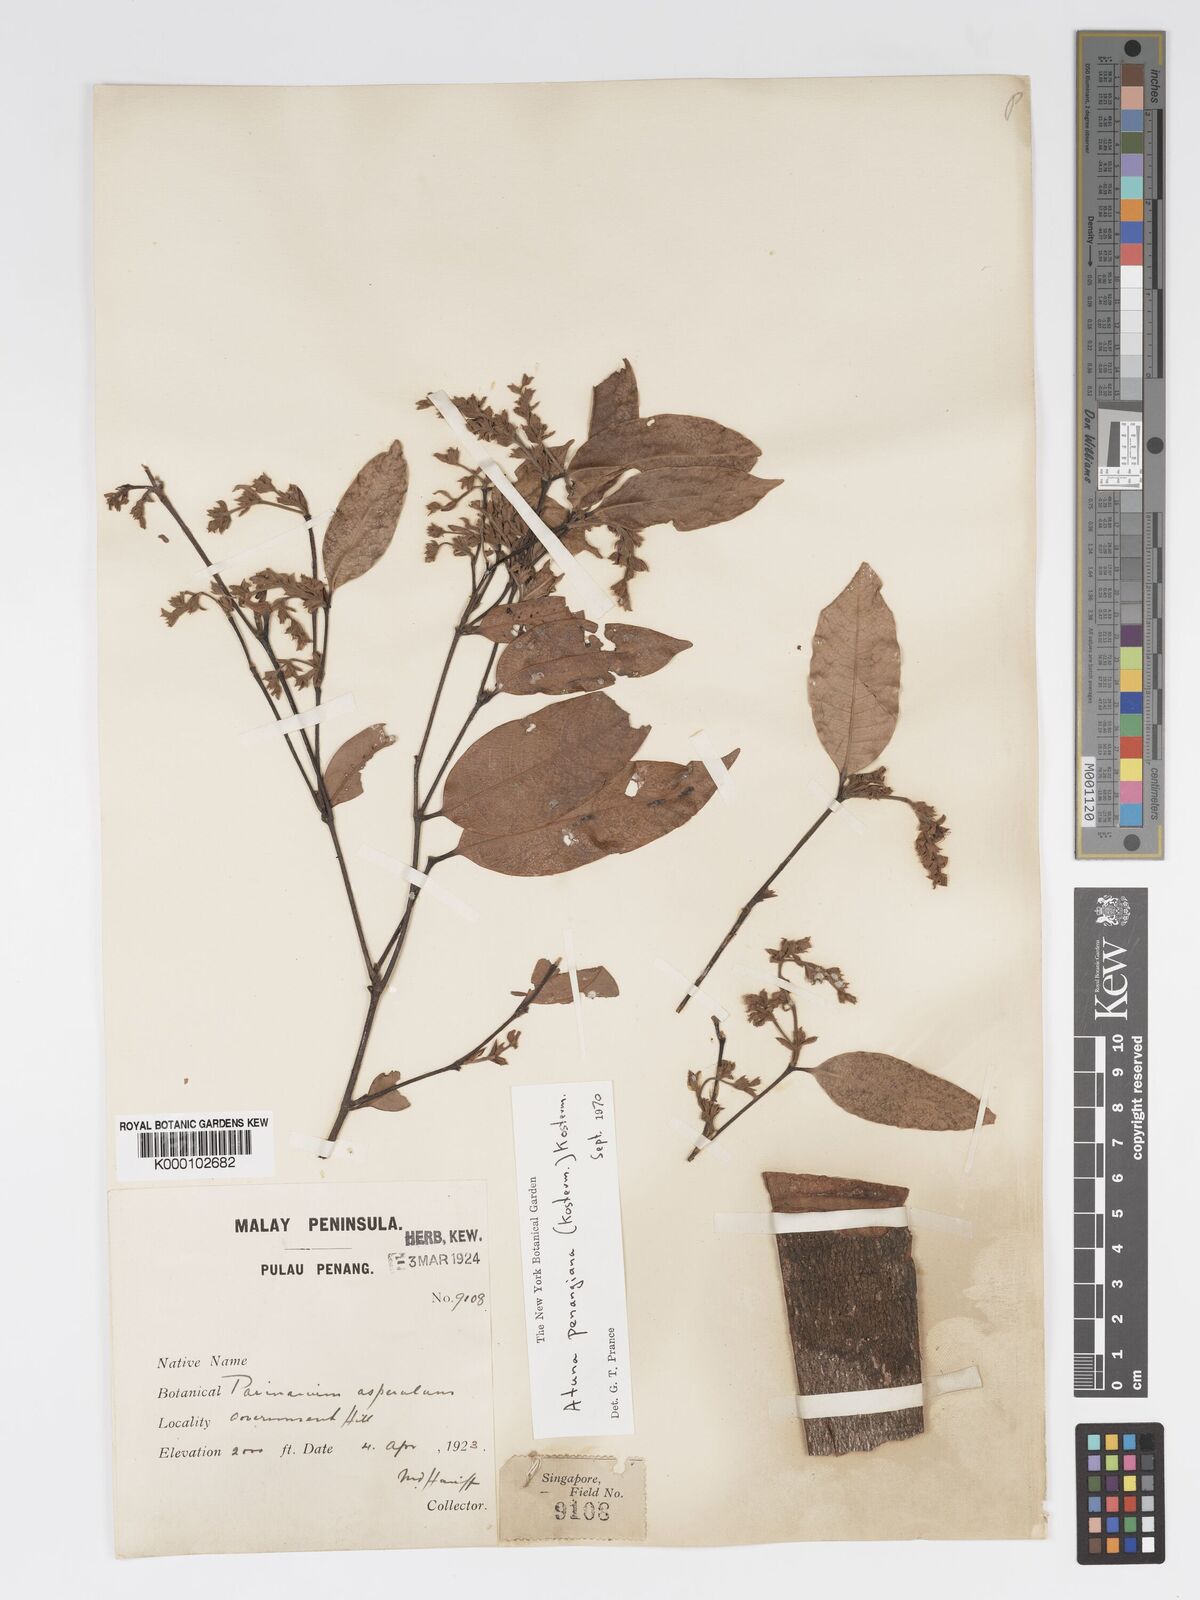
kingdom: Plantae
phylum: Tracheophyta
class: Magnoliopsida
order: Malpighiales
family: Chrysobalanaceae
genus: Atuna
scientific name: Atuna penangiana
